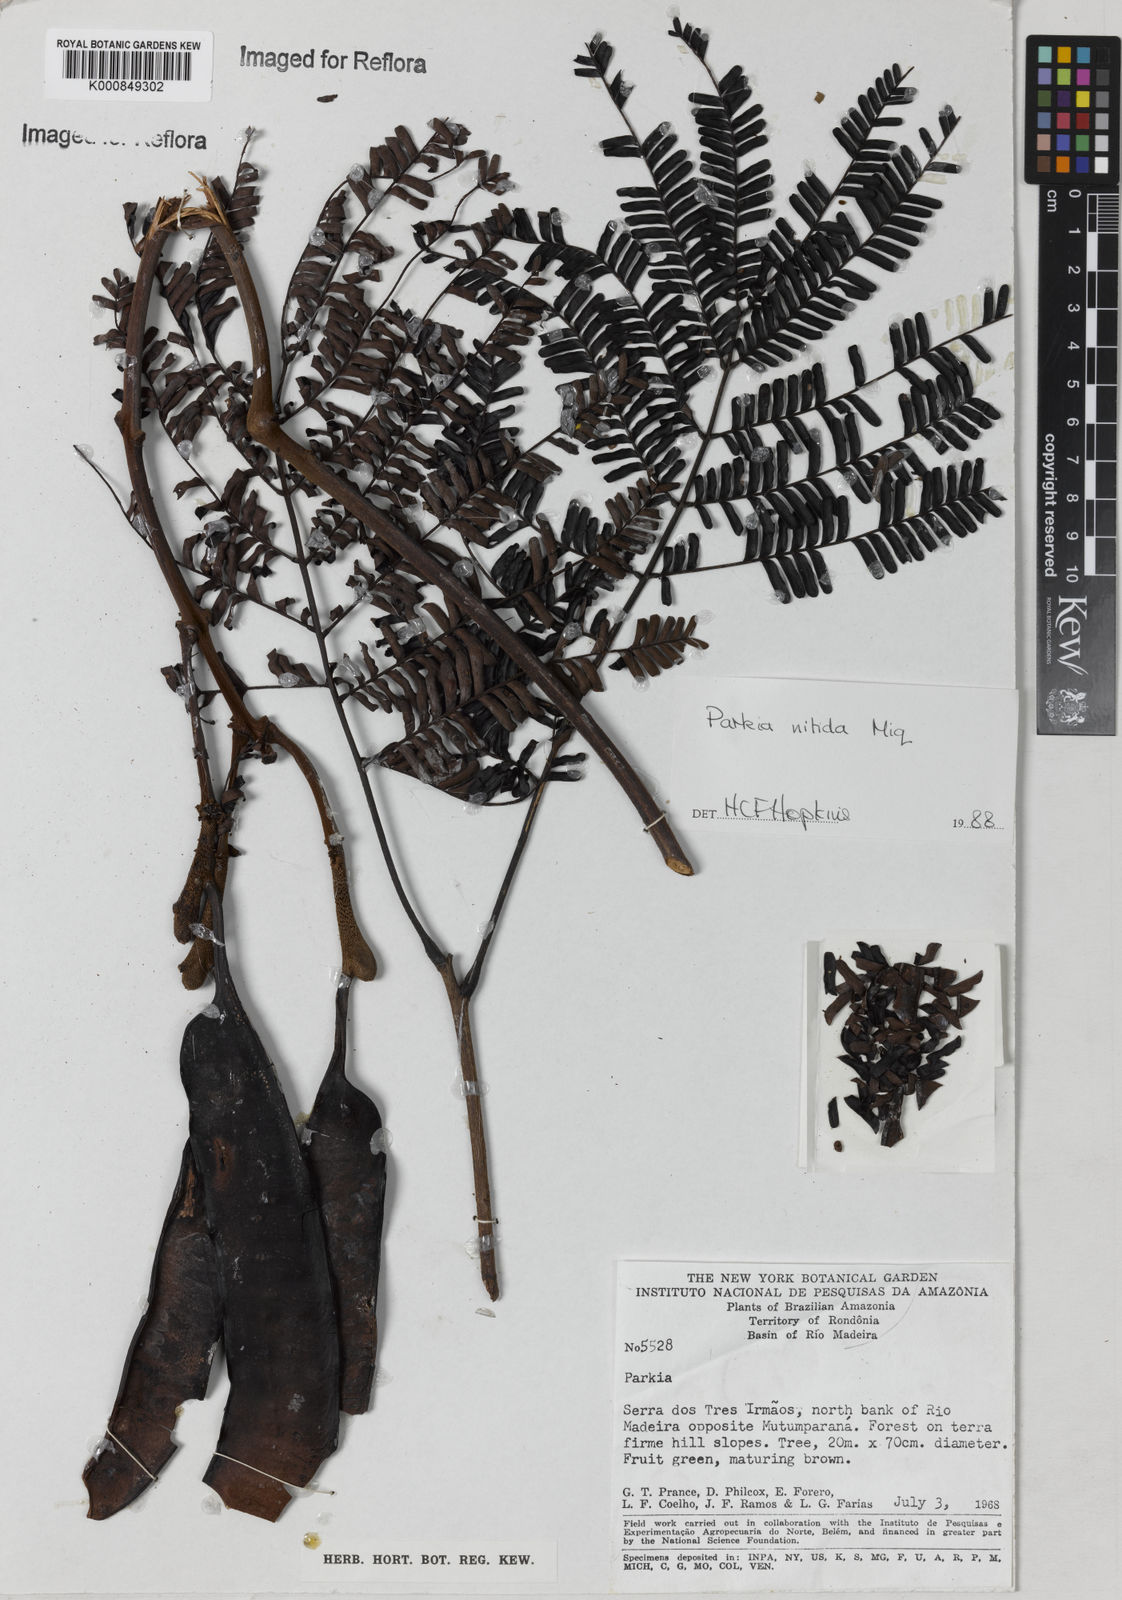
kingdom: Plantae
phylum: Tracheophyta
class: Magnoliopsida
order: Fabales
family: Fabaceae
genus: Parkia
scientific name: Parkia nitida
